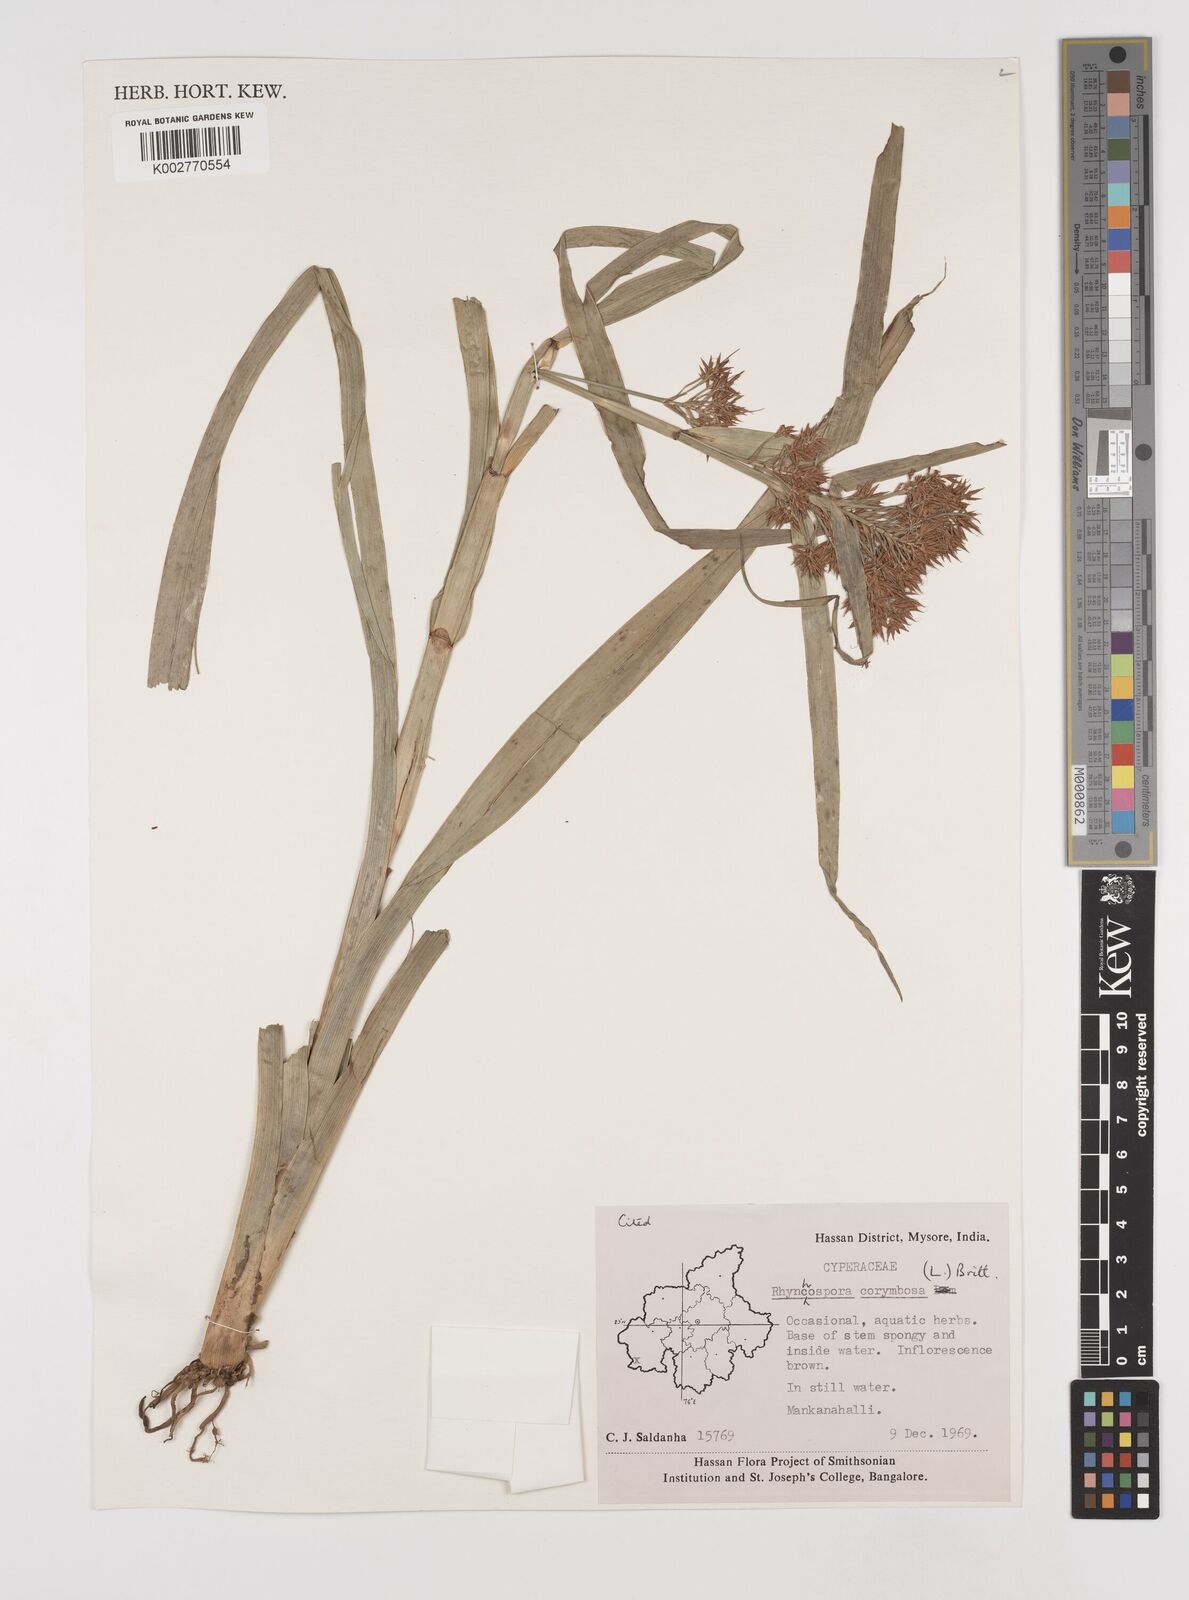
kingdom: Plantae
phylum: Tracheophyta
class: Liliopsida
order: Poales
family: Cyperaceae
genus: Rhynchospora
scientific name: Rhynchospora corymbosa
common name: Golden beak sedge
